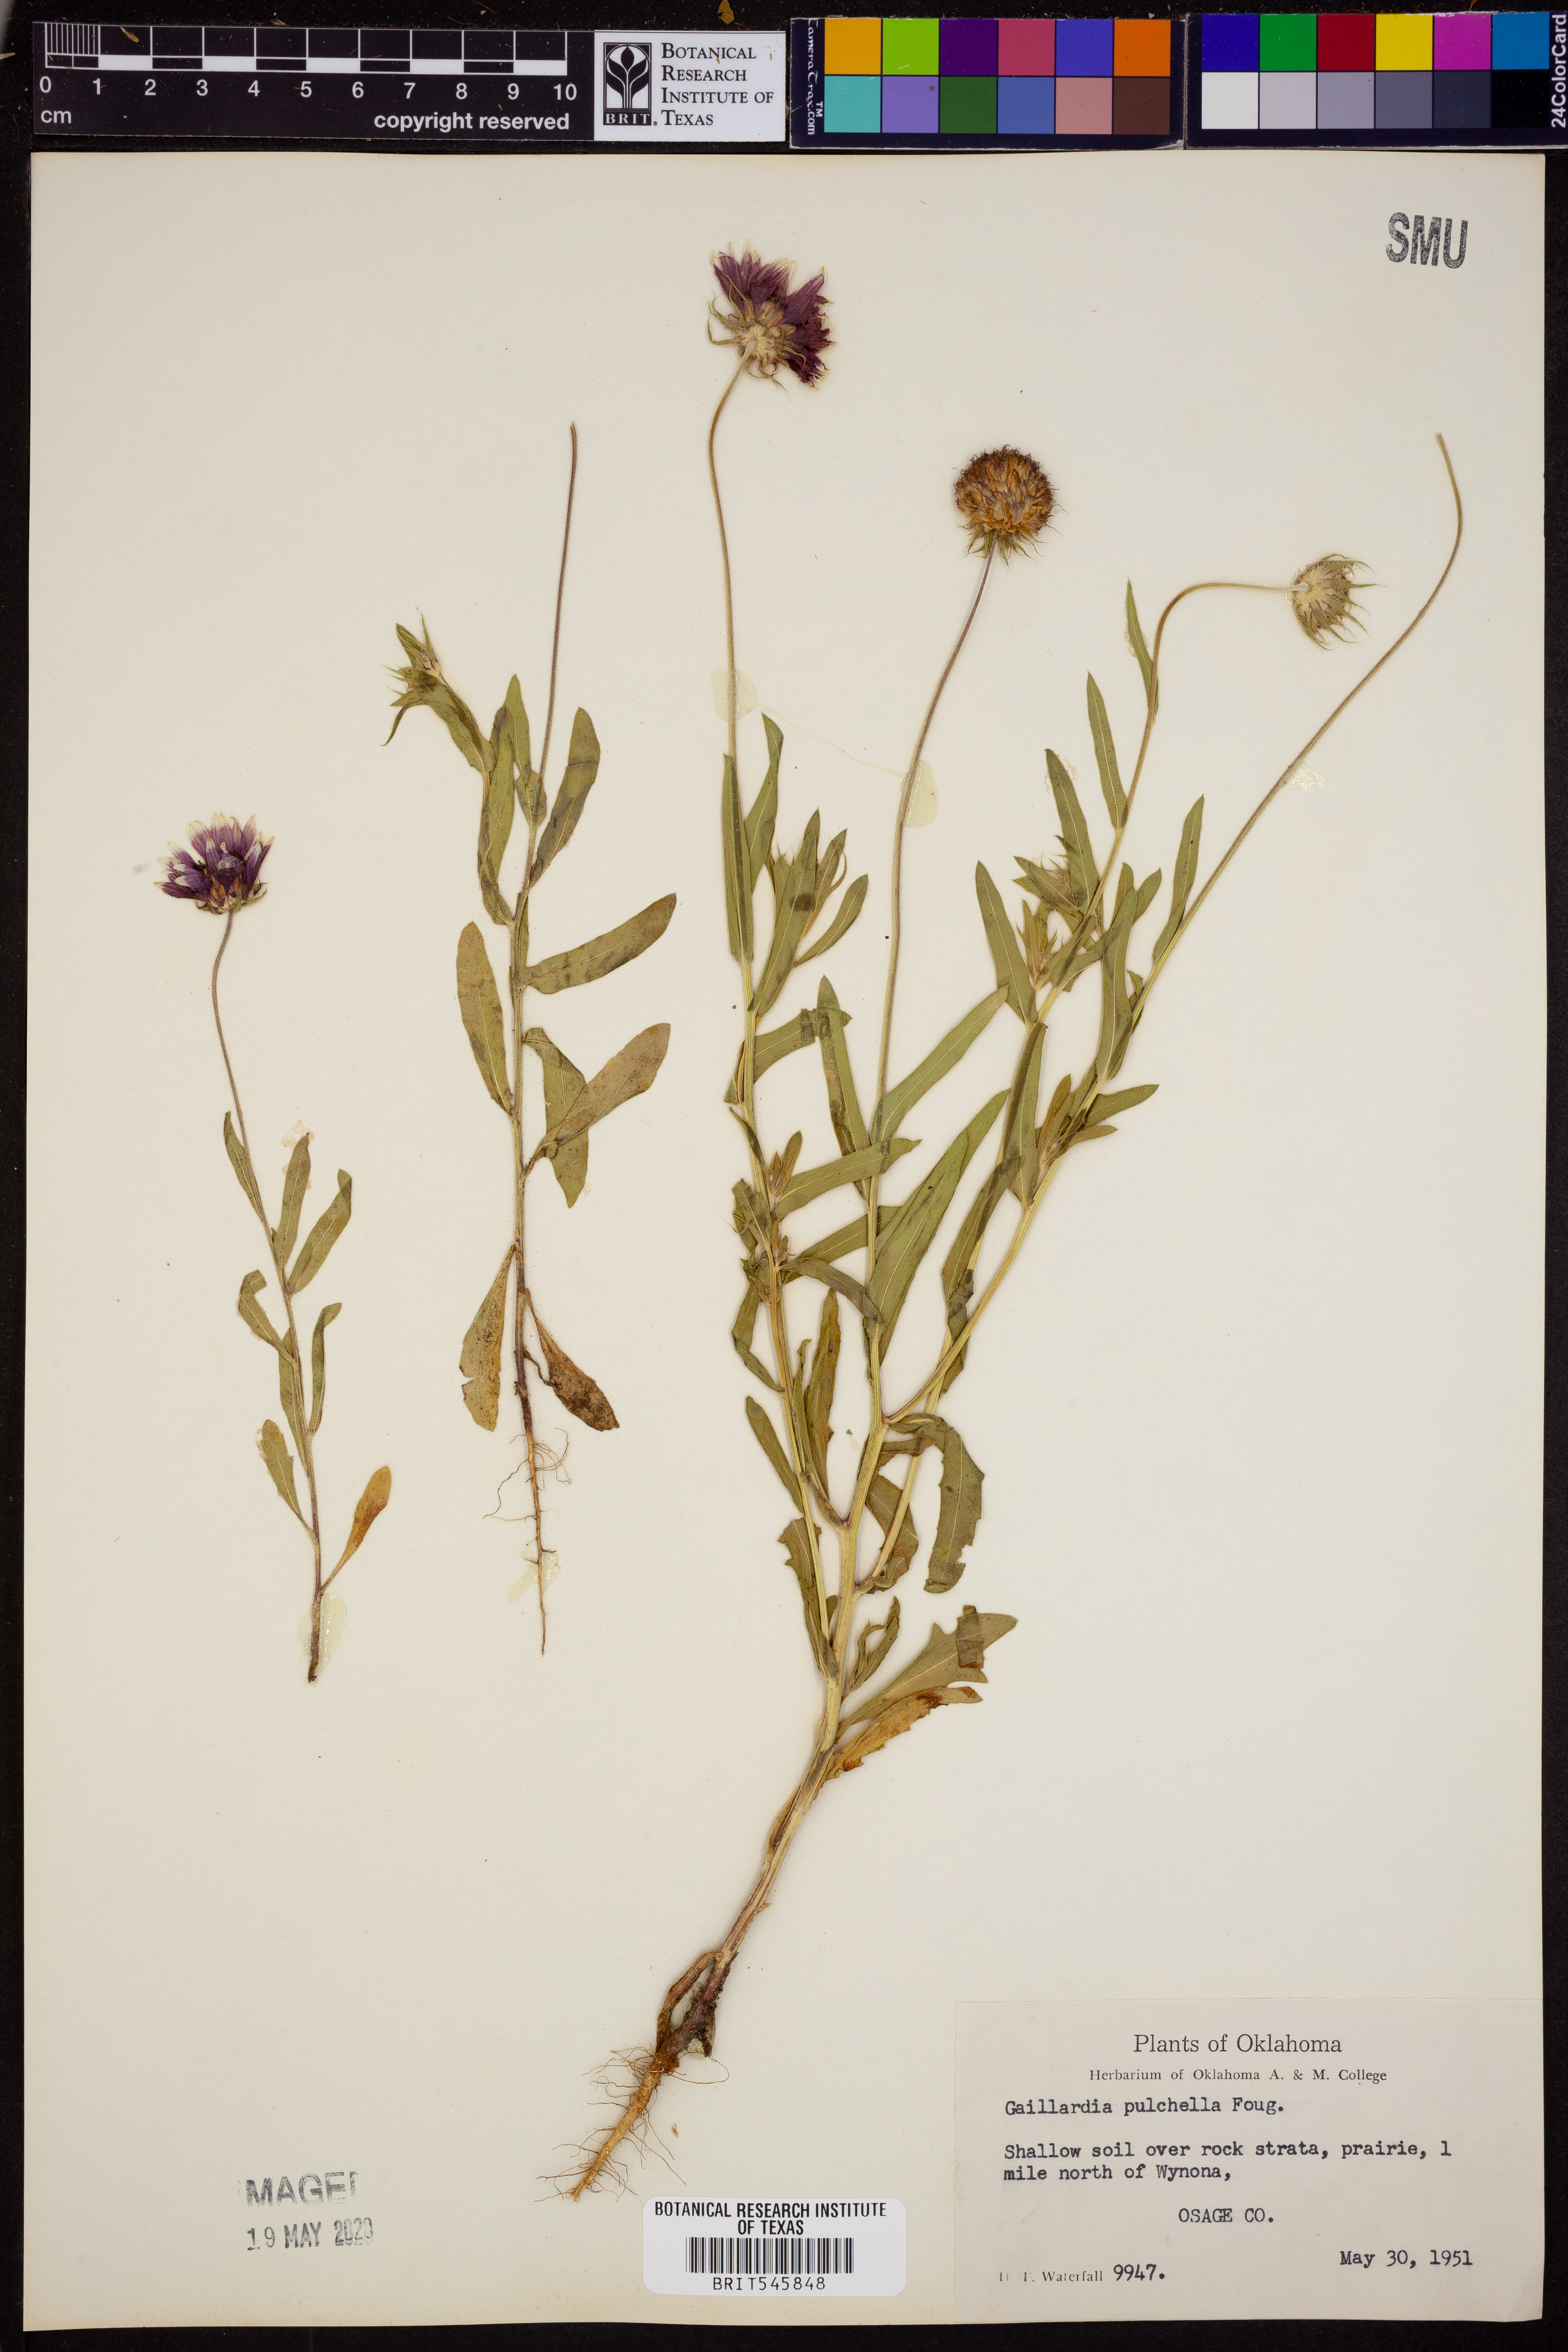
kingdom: Plantae
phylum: Tracheophyta
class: Magnoliopsida
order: Asterales
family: Asteraceae
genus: Gaillardia
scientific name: Gaillardia pulchella
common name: Firewheel
